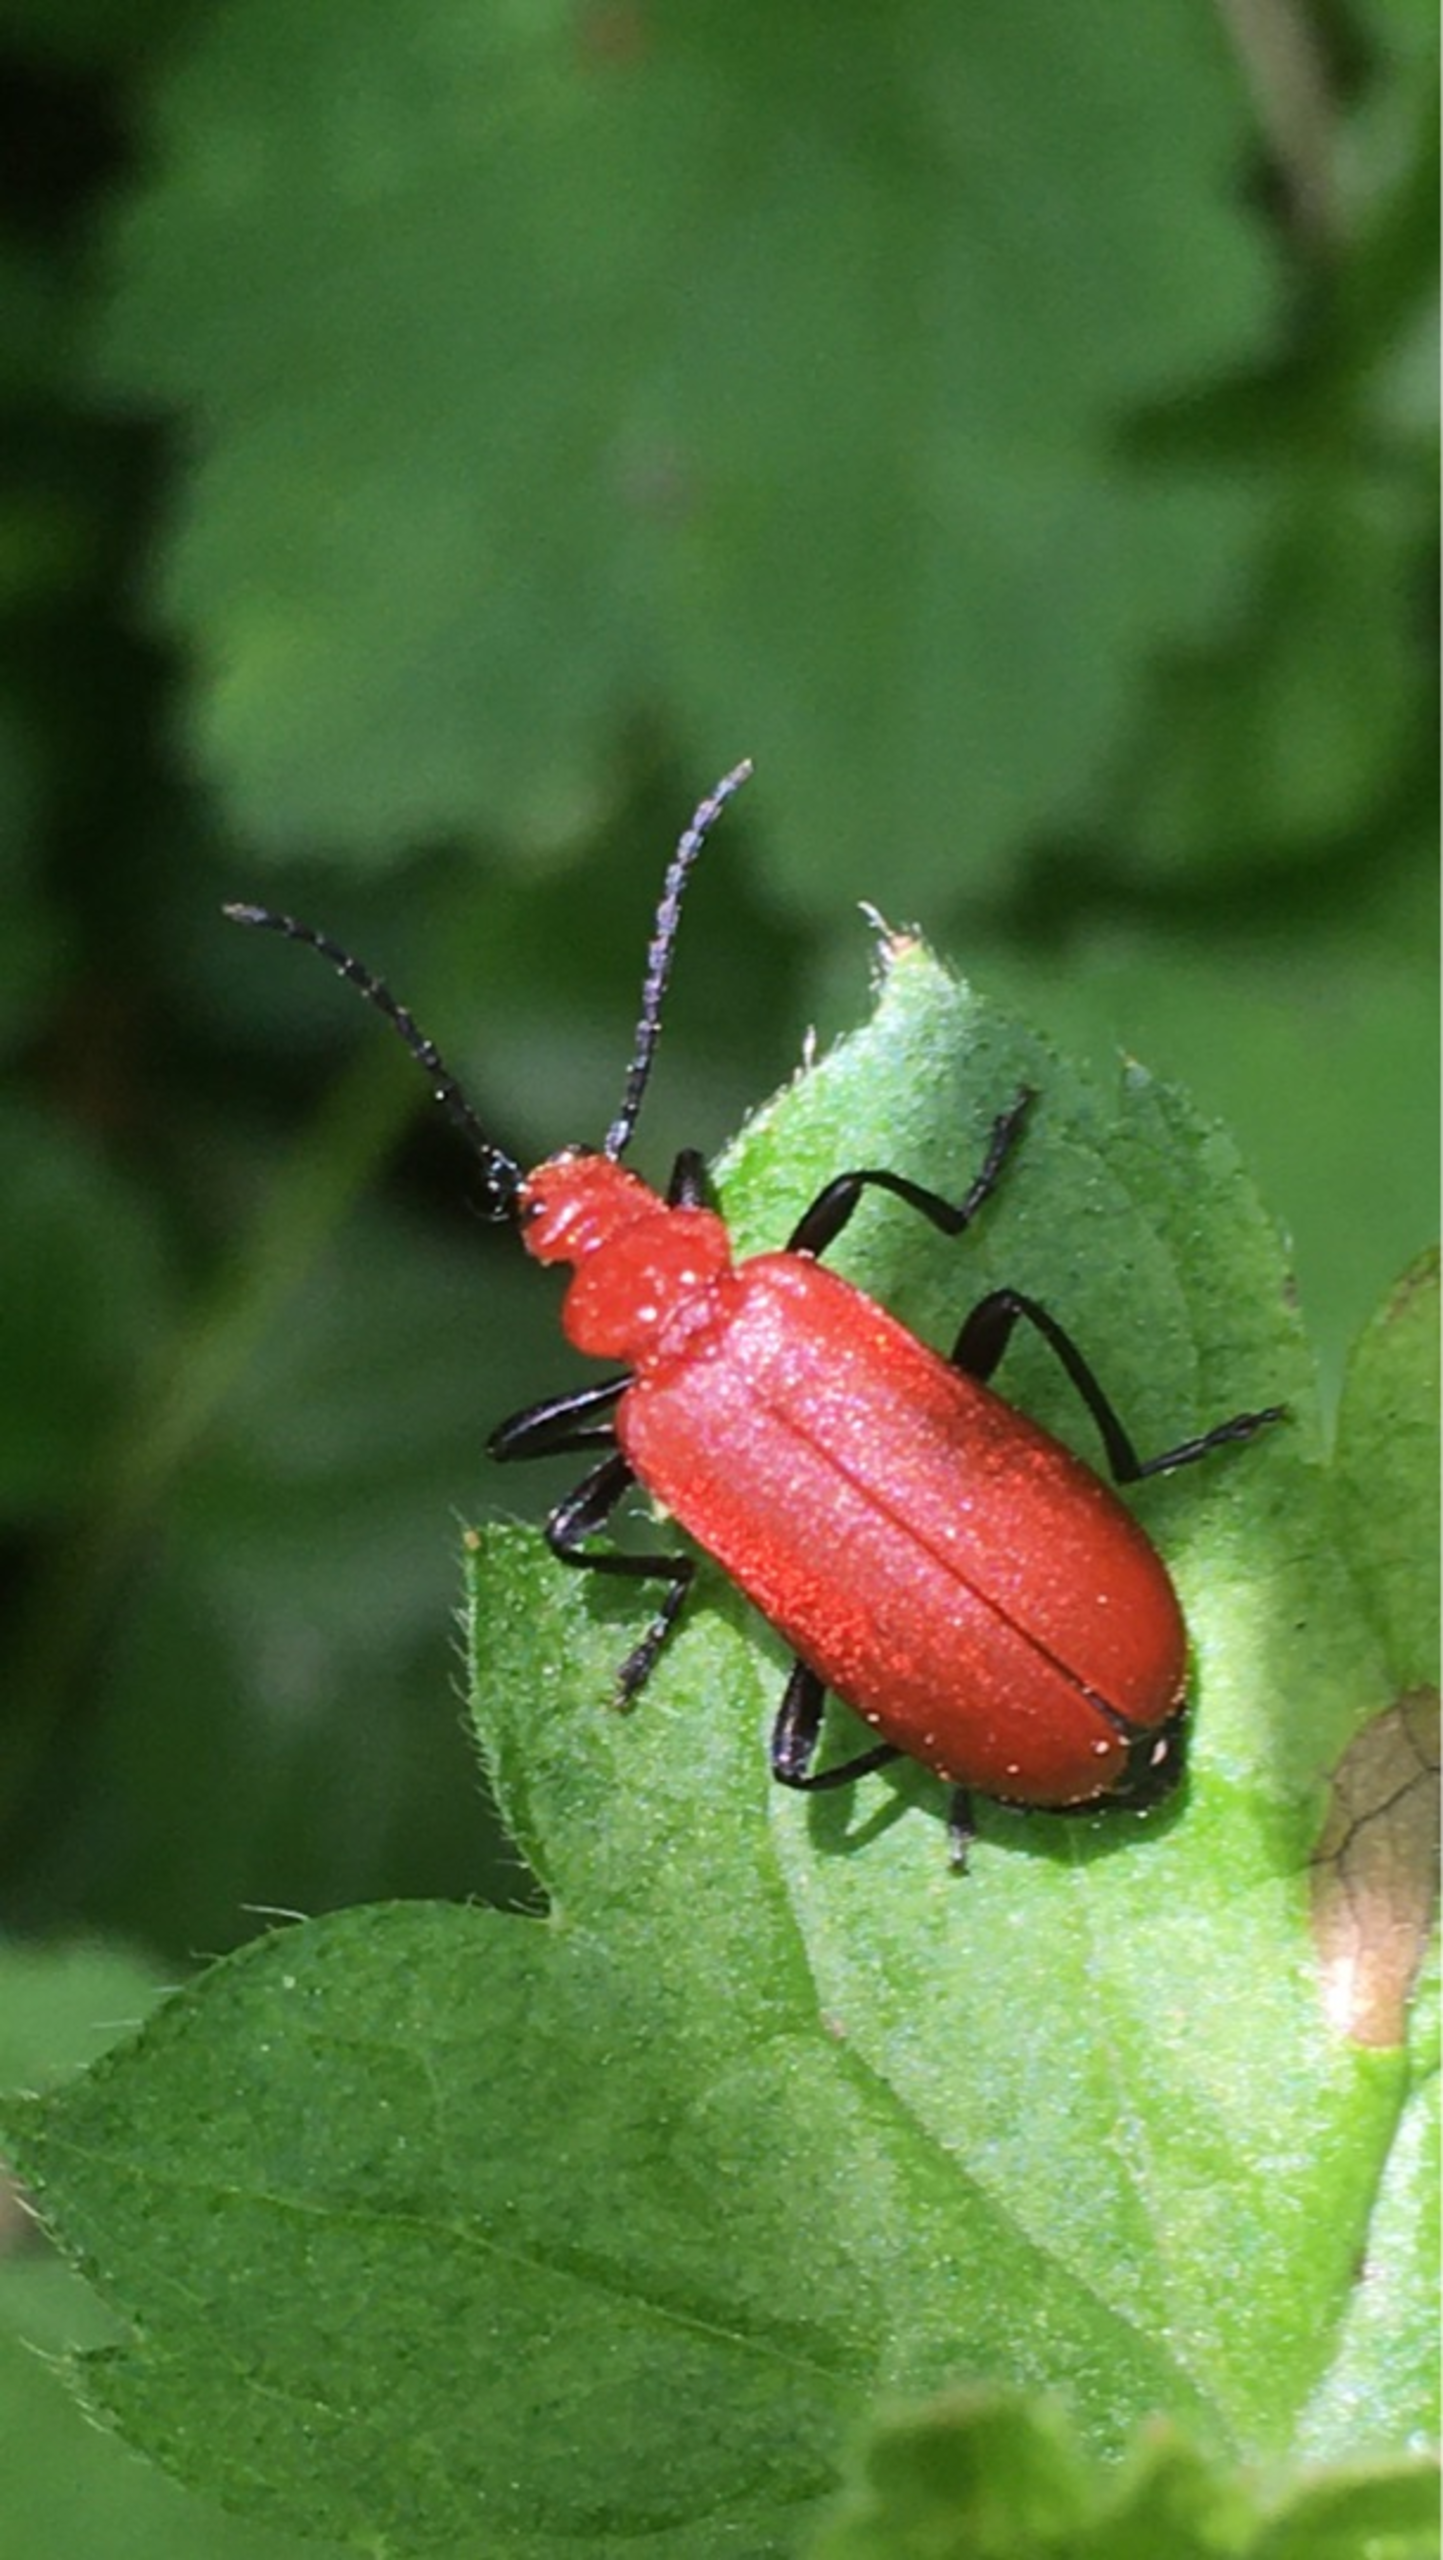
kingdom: Animalia
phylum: Arthropoda
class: Insecta
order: Coleoptera
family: Pyrochroidae
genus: Pyrochroa
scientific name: Pyrochroa serraticornis
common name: Rødhovedet kardinalbille
